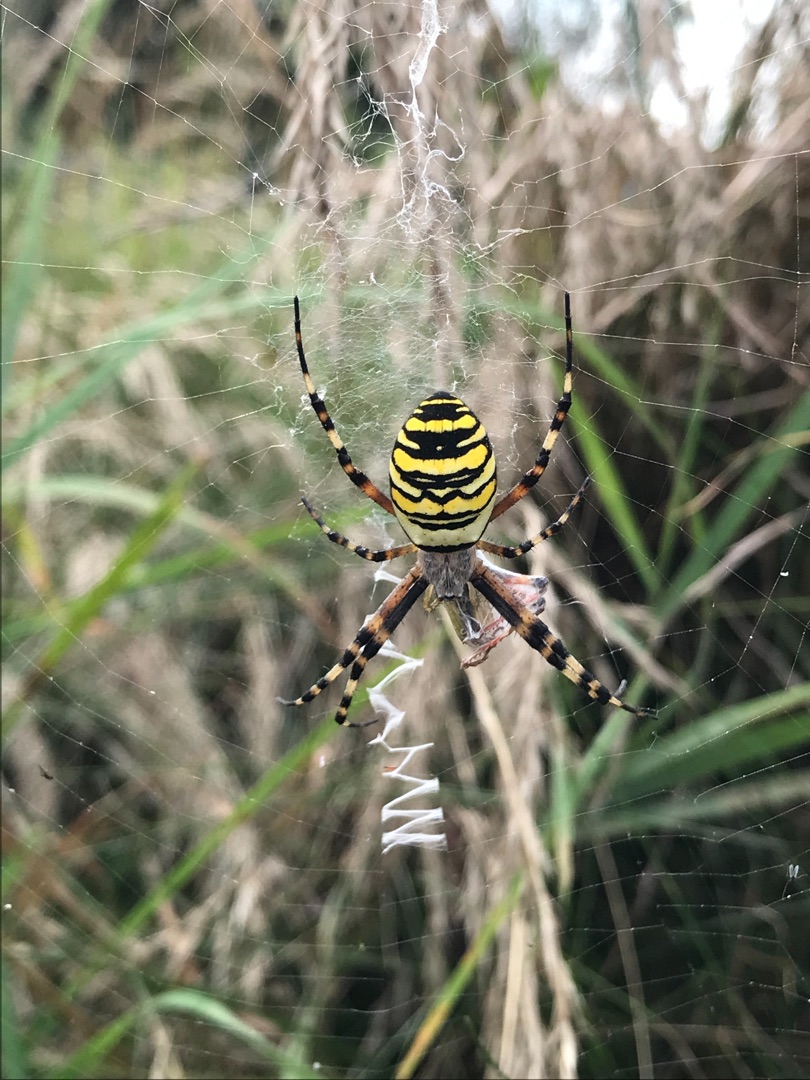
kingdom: Animalia
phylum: Arthropoda
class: Arachnida
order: Araneae
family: Araneidae
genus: Argiope
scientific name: Argiope bruennichi
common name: Hvepseedderkop
